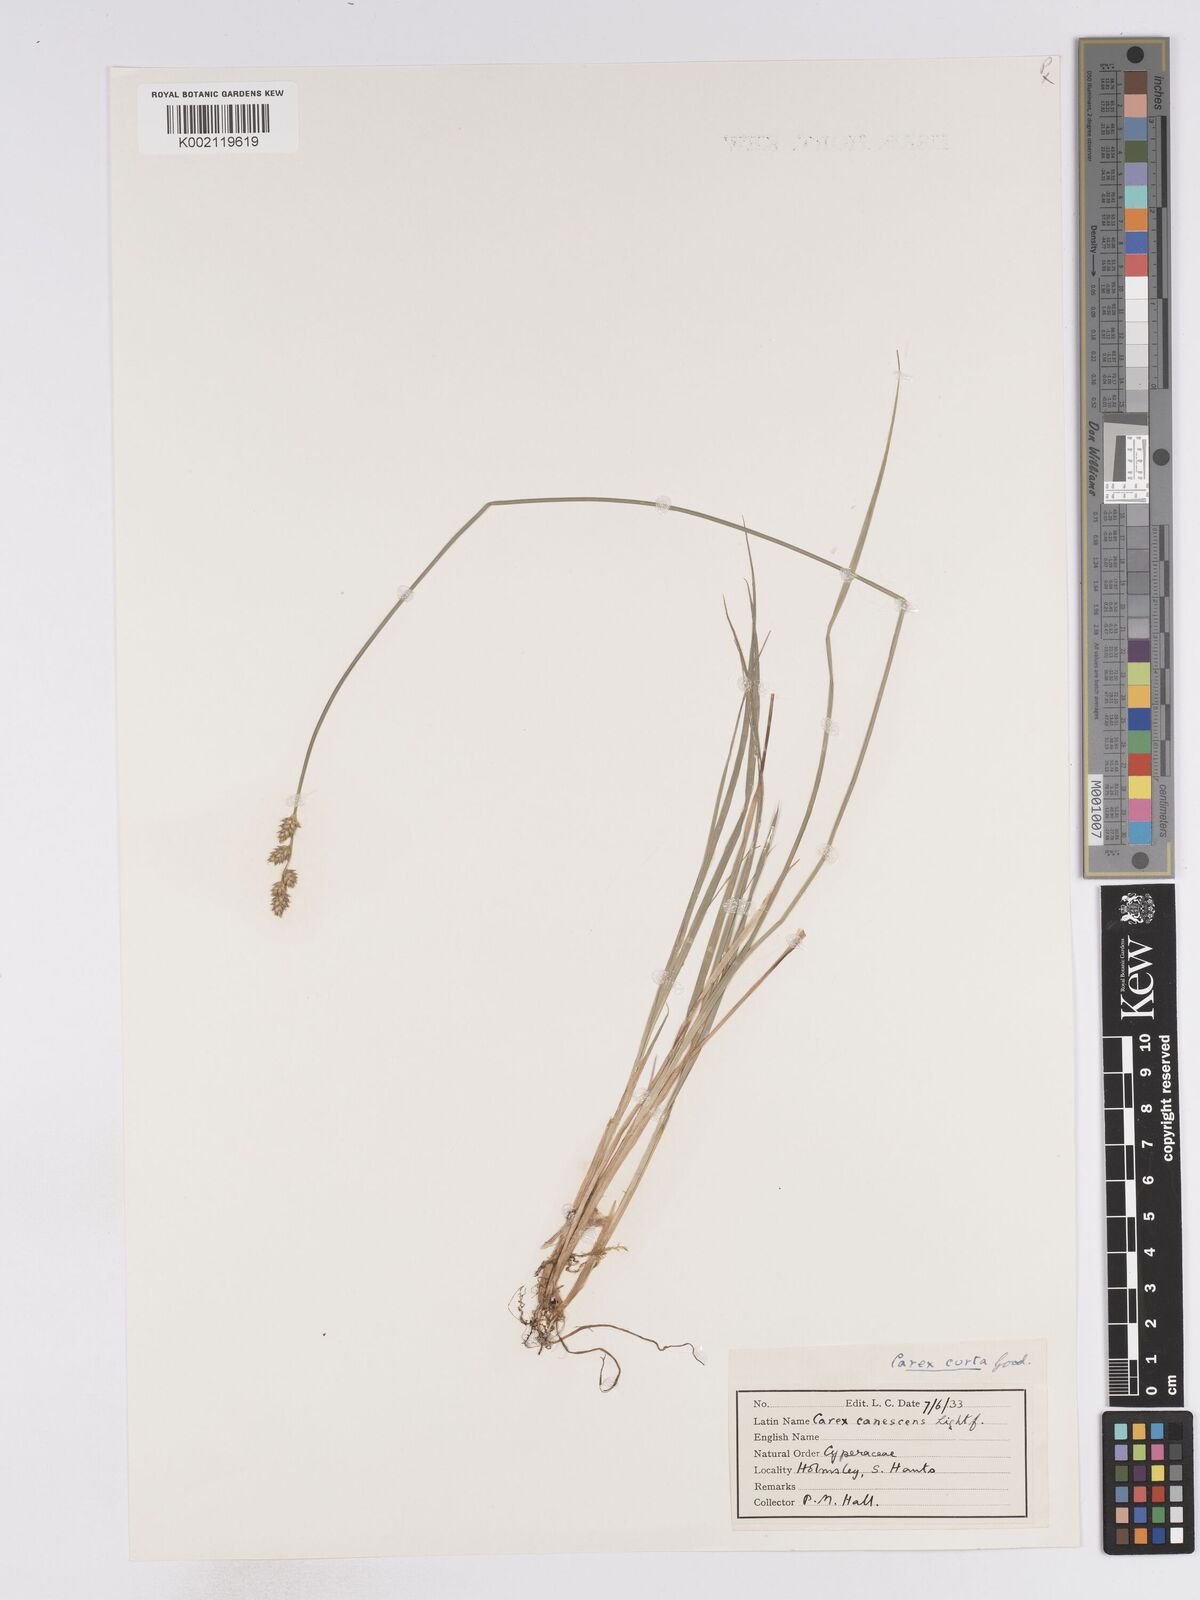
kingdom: Plantae
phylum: Tracheophyta
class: Liliopsida
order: Poales
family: Cyperaceae
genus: Carex
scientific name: Carex curta
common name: White sedge
